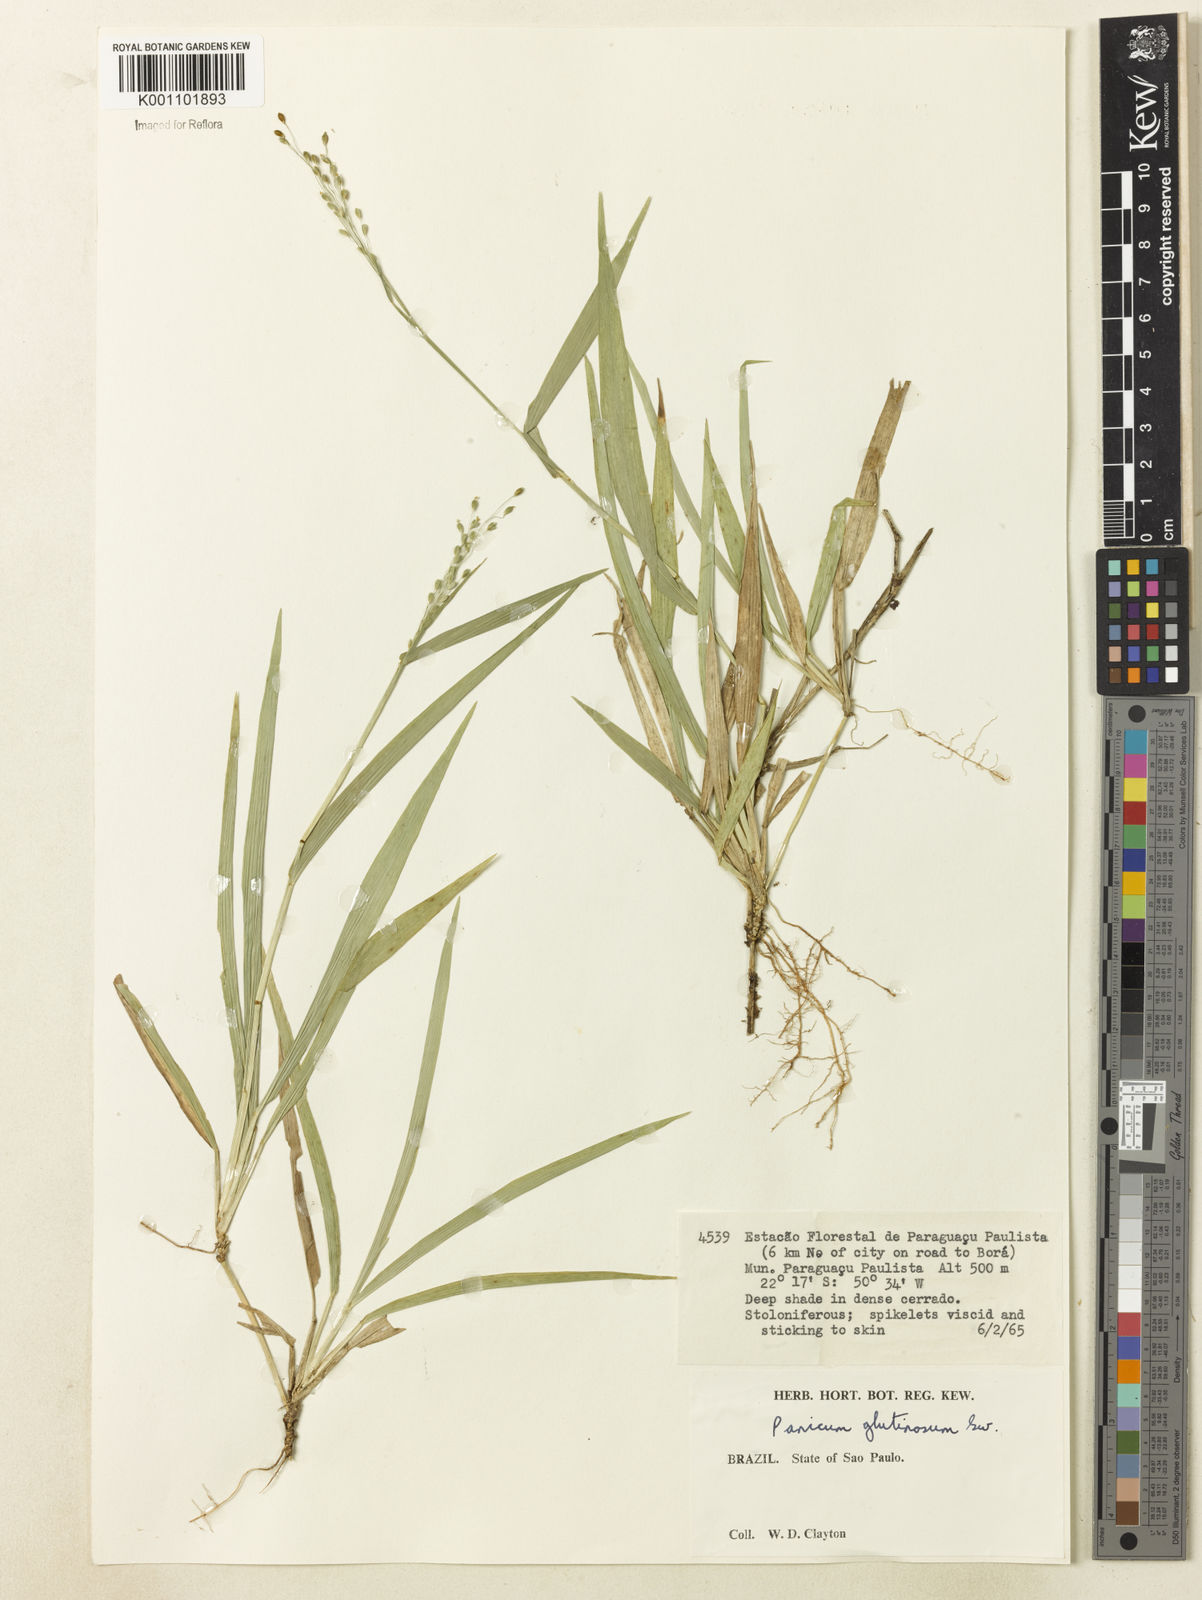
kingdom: Plantae
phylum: Tracheophyta
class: Liliopsida
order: Poales
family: Poaceae
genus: Homolepis
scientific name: Homolepis villaricensis
